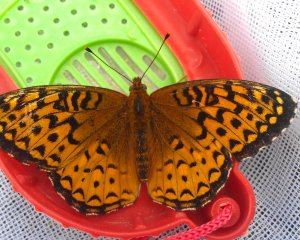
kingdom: Animalia
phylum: Arthropoda
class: Insecta
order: Lepidoptera
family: Nymphalidae
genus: Speyeria
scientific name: Speyeria atlantis
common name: Atlantis Fritillary
